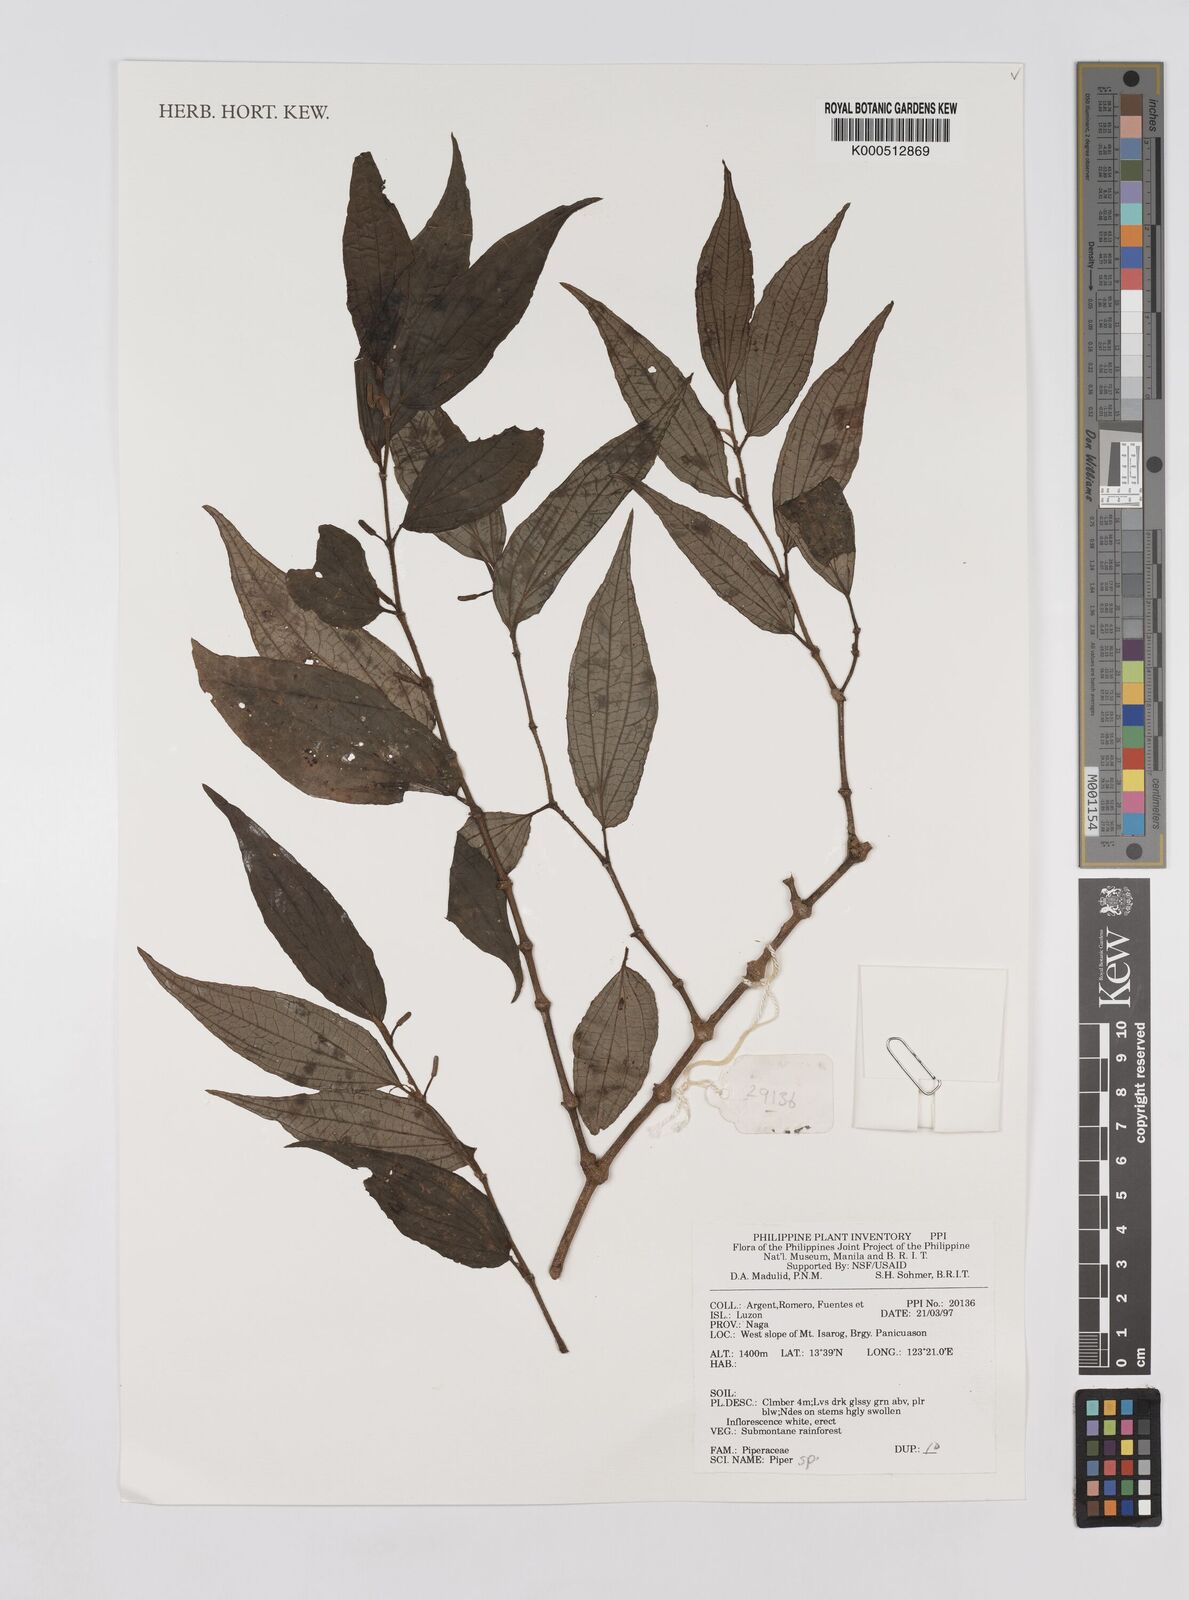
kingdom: Plantae
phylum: Tracheophyta
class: Magnoliopsida
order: Piperales
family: Piperaceae
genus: Piper
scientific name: Piper
